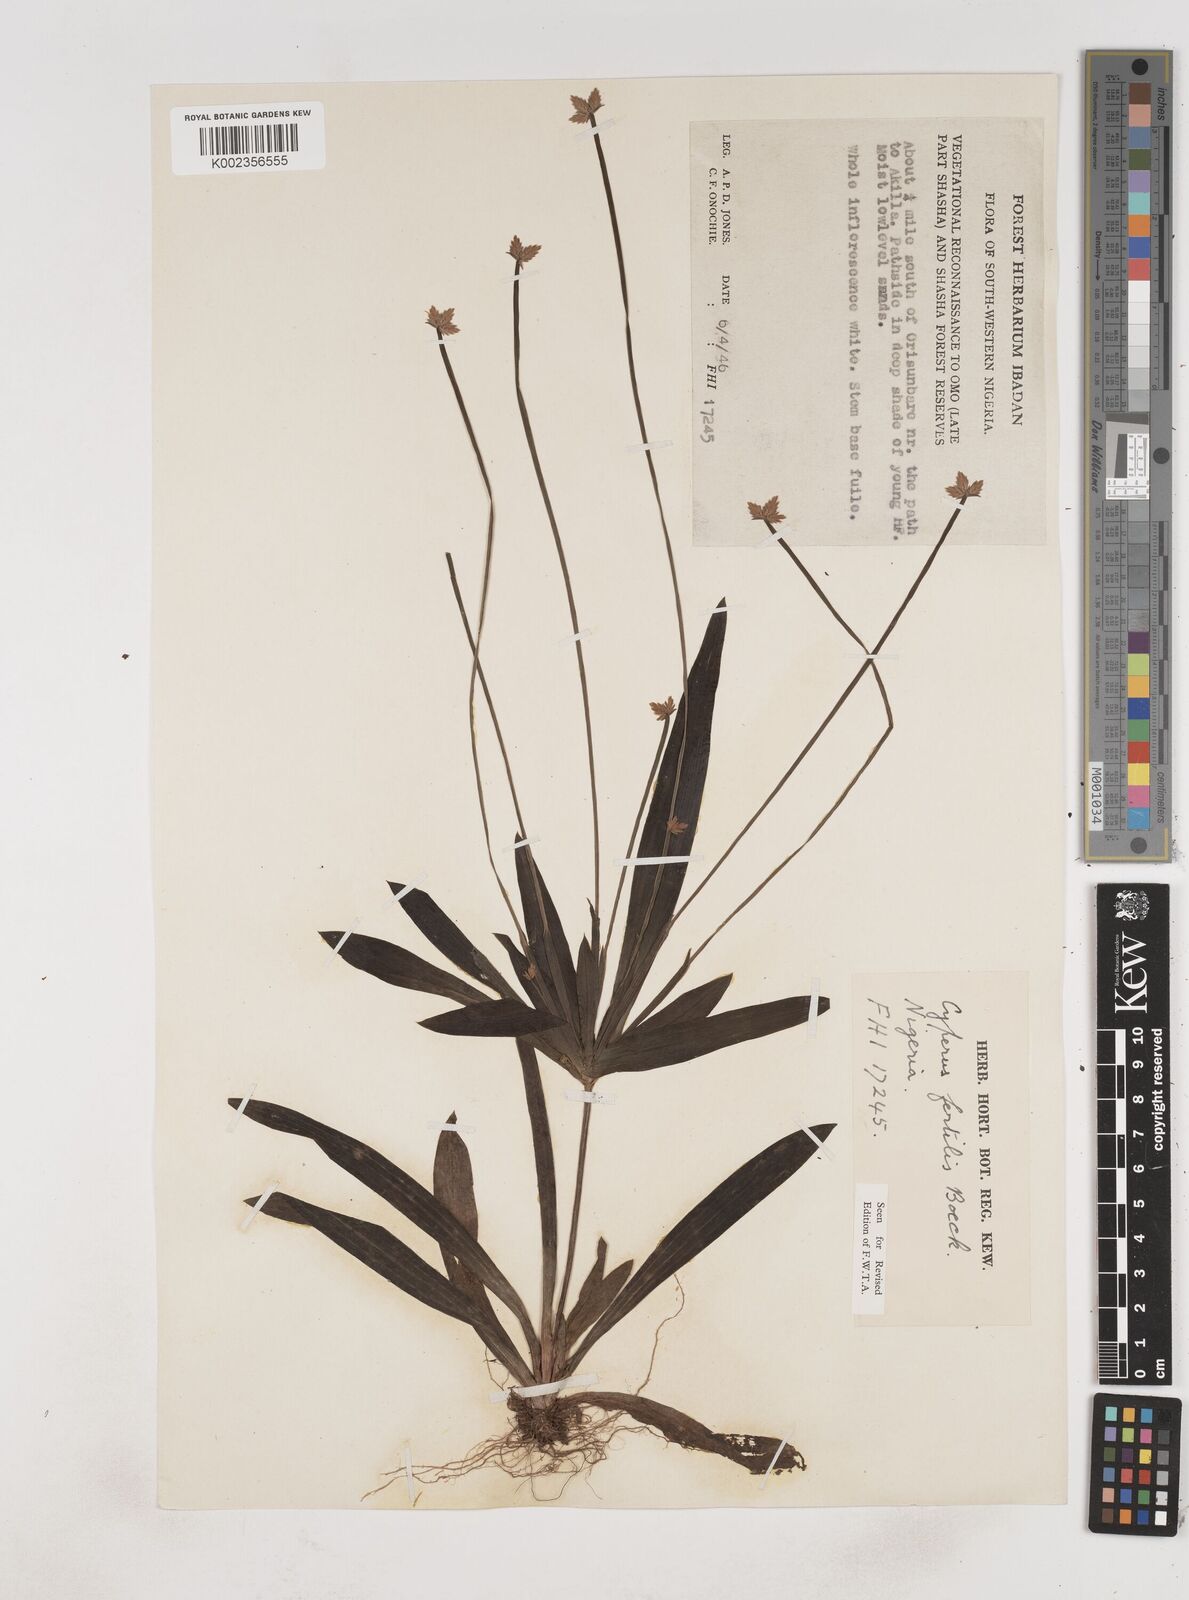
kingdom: Plantae
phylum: Tracheophyta
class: Liliopsida
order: Poales
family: Cyperaceae
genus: Cyperus
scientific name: Cyperus fertilis
